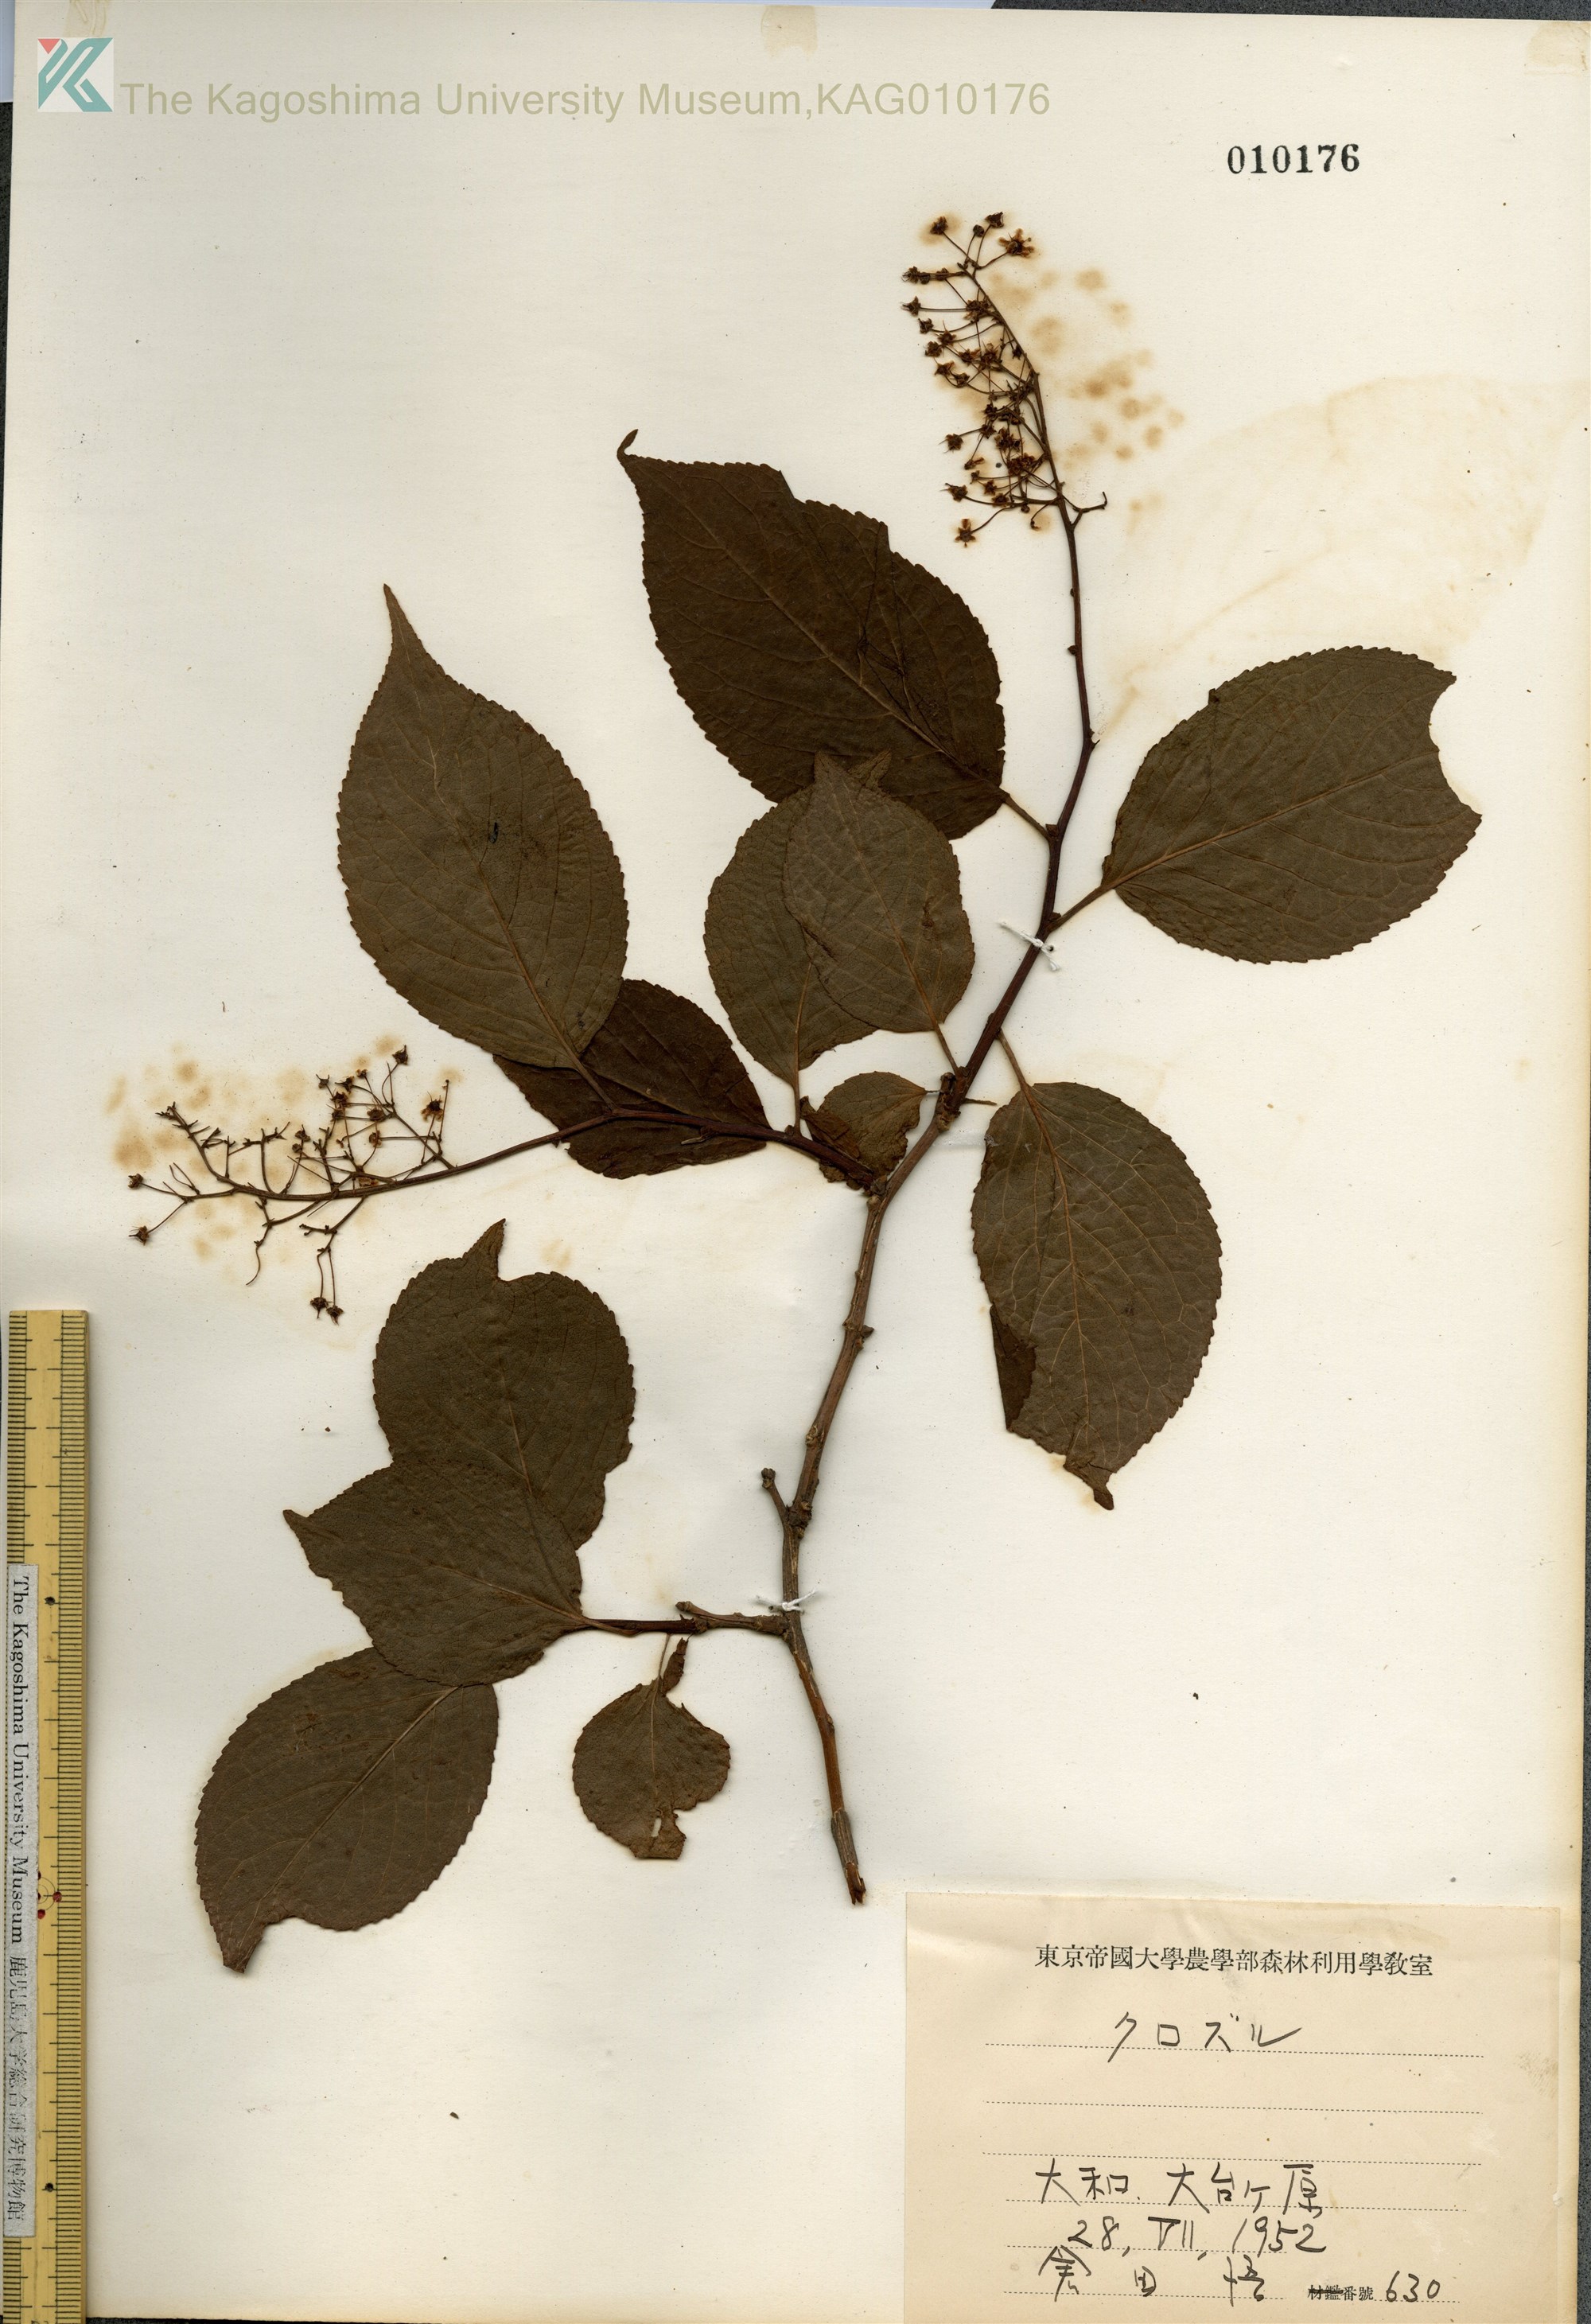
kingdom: Plantae
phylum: Tracheophyta
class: Magnoliopsida
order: Celastrales
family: Celastraceae
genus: Tripterygium
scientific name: Tripterygium wilfordii
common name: クロヅル
